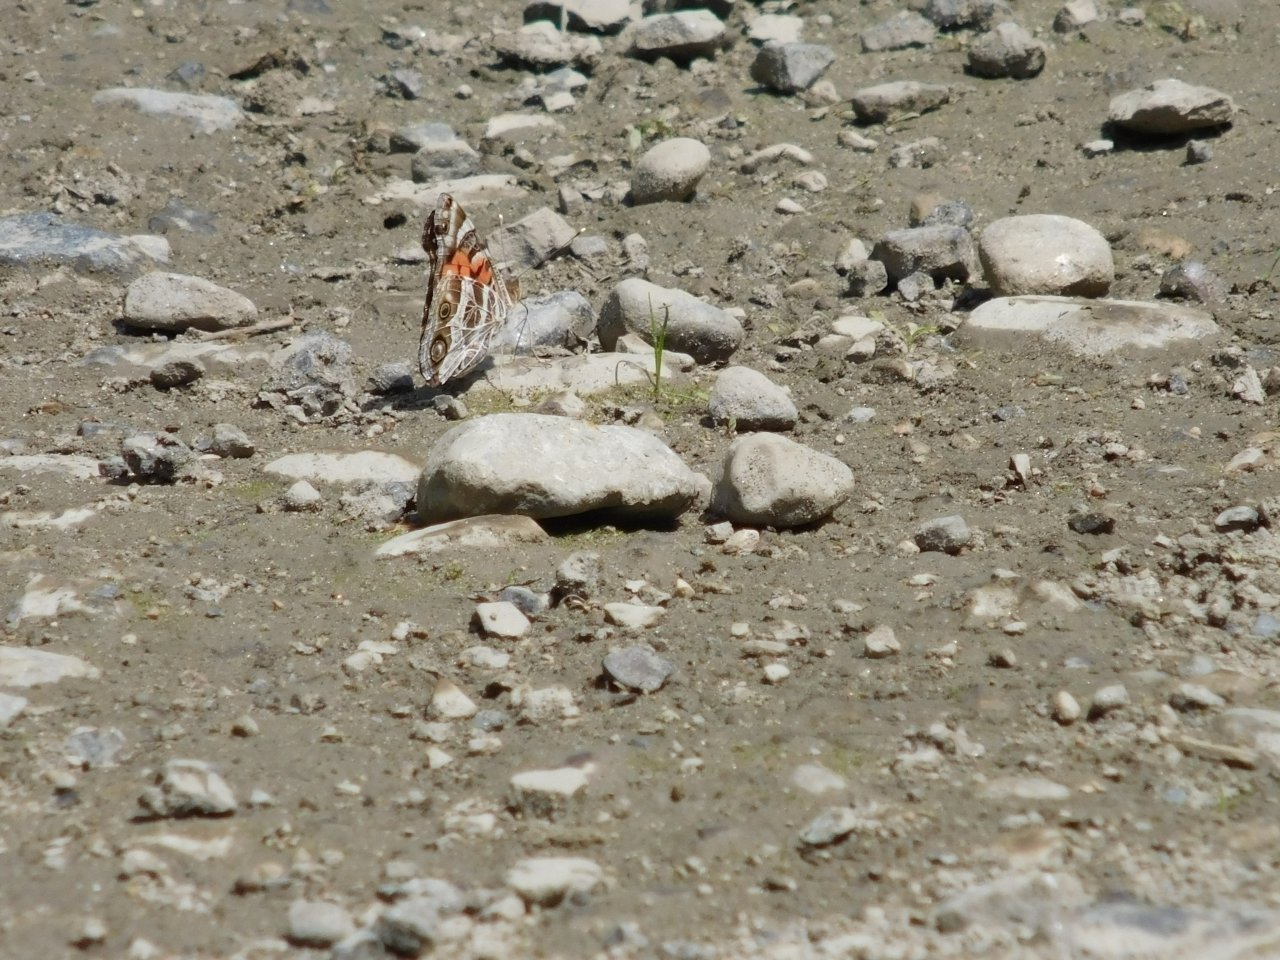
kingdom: Animalia
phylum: Arthropoda
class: Insecta
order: Lepidoptera
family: Nymphalidae
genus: Vanessa
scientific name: Vanessa virginiensis
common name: American Lady
